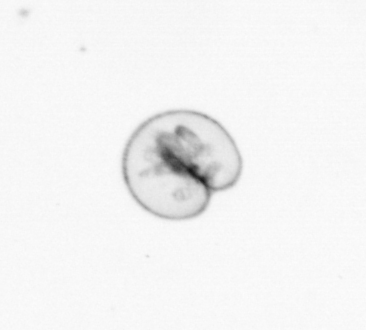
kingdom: Chromista
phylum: Myzozoa
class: Dinophyceae
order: Noctilucales
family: Noctilucaceae
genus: Noctiluca
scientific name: Noctiluca scintillans
